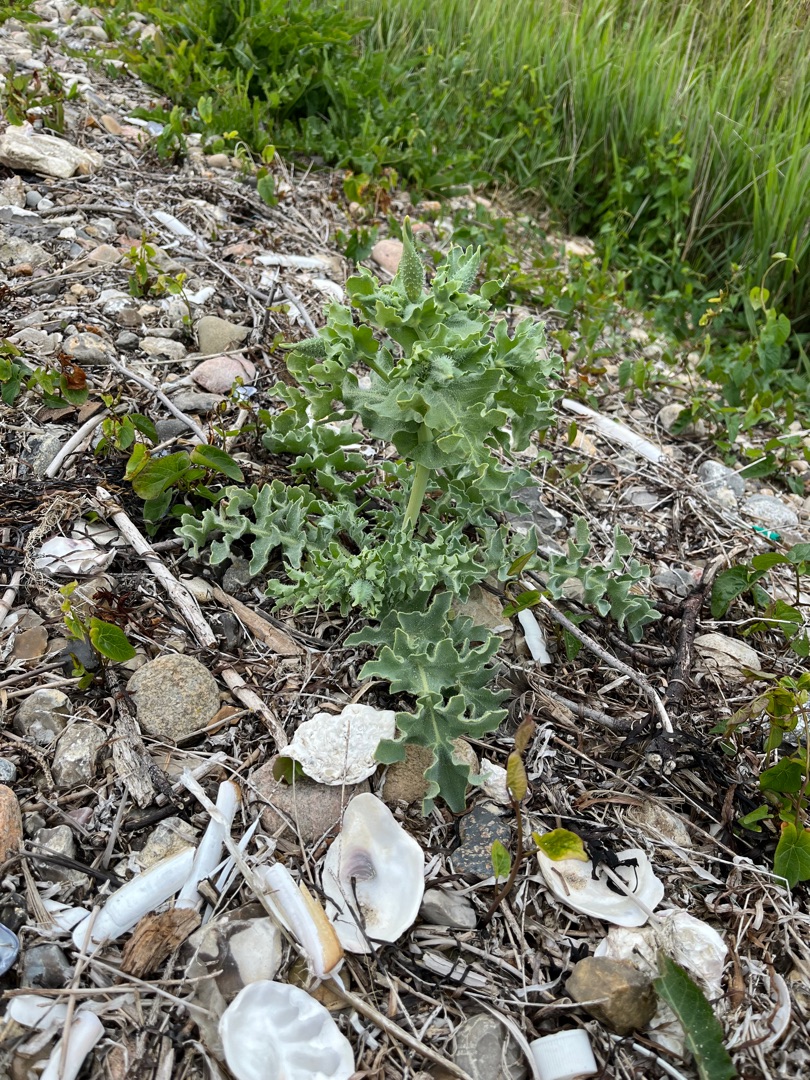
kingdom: Plantae
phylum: Tracheophyta
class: Magnoliopsida
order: Ranunculales
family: Papaveraceae
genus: Glaucium
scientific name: Glaucium flavum
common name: Hornskulpe
